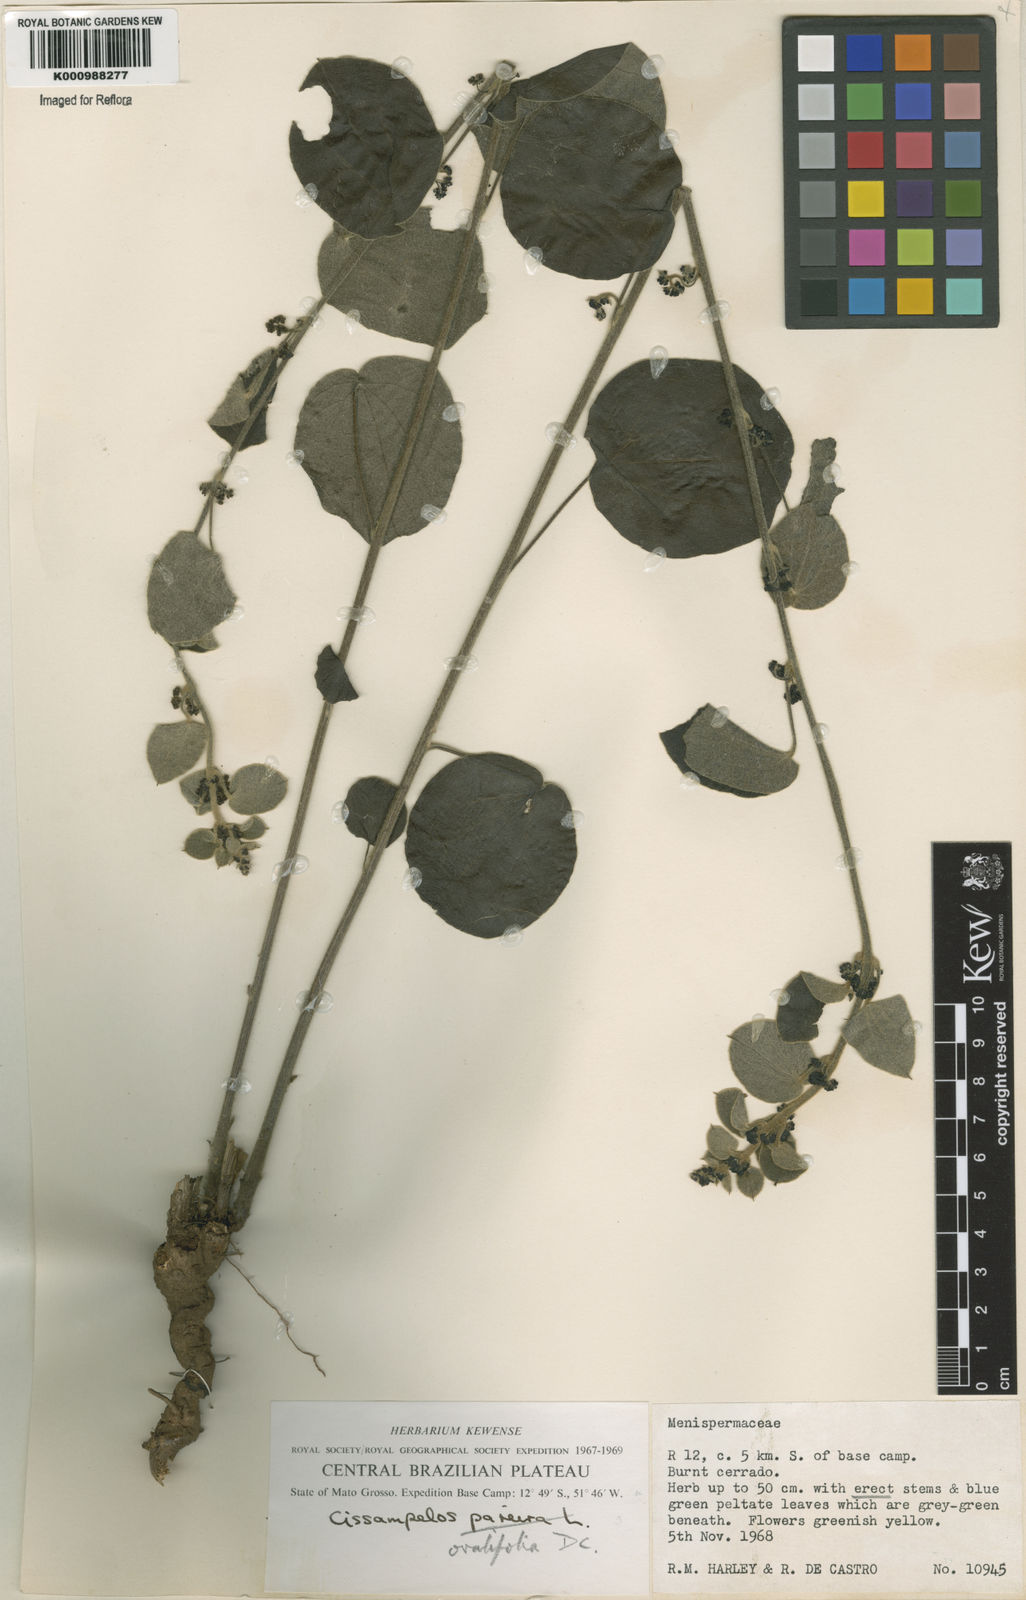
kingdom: Plantae
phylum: Tracheophyta
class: Magnoliopsida
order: Ranunculales
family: Menispermaceae
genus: Cissampelos
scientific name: Cissampelos ovalifolia
